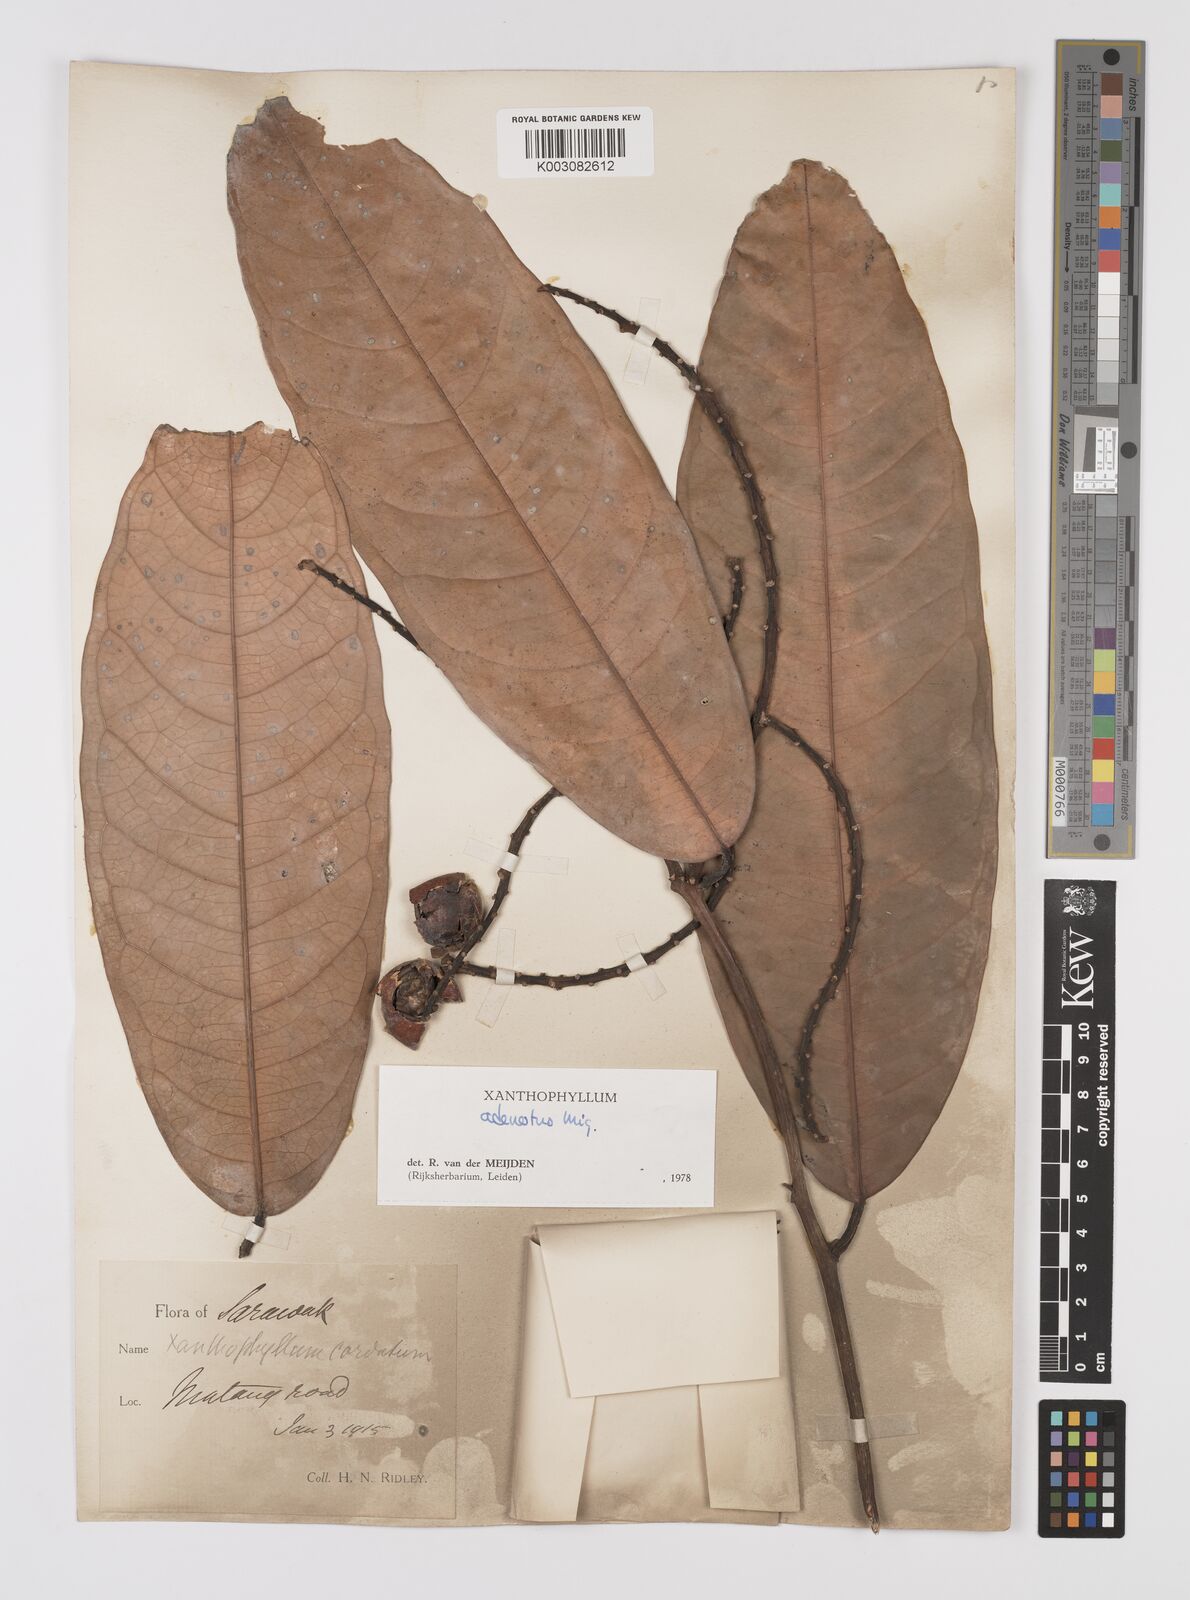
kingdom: Plantae
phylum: Tracheophyta
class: Magnoliopsida
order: Fabales
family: Polygalaceae
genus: Xanthophyllum
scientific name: Xanthophyllum adenotus
